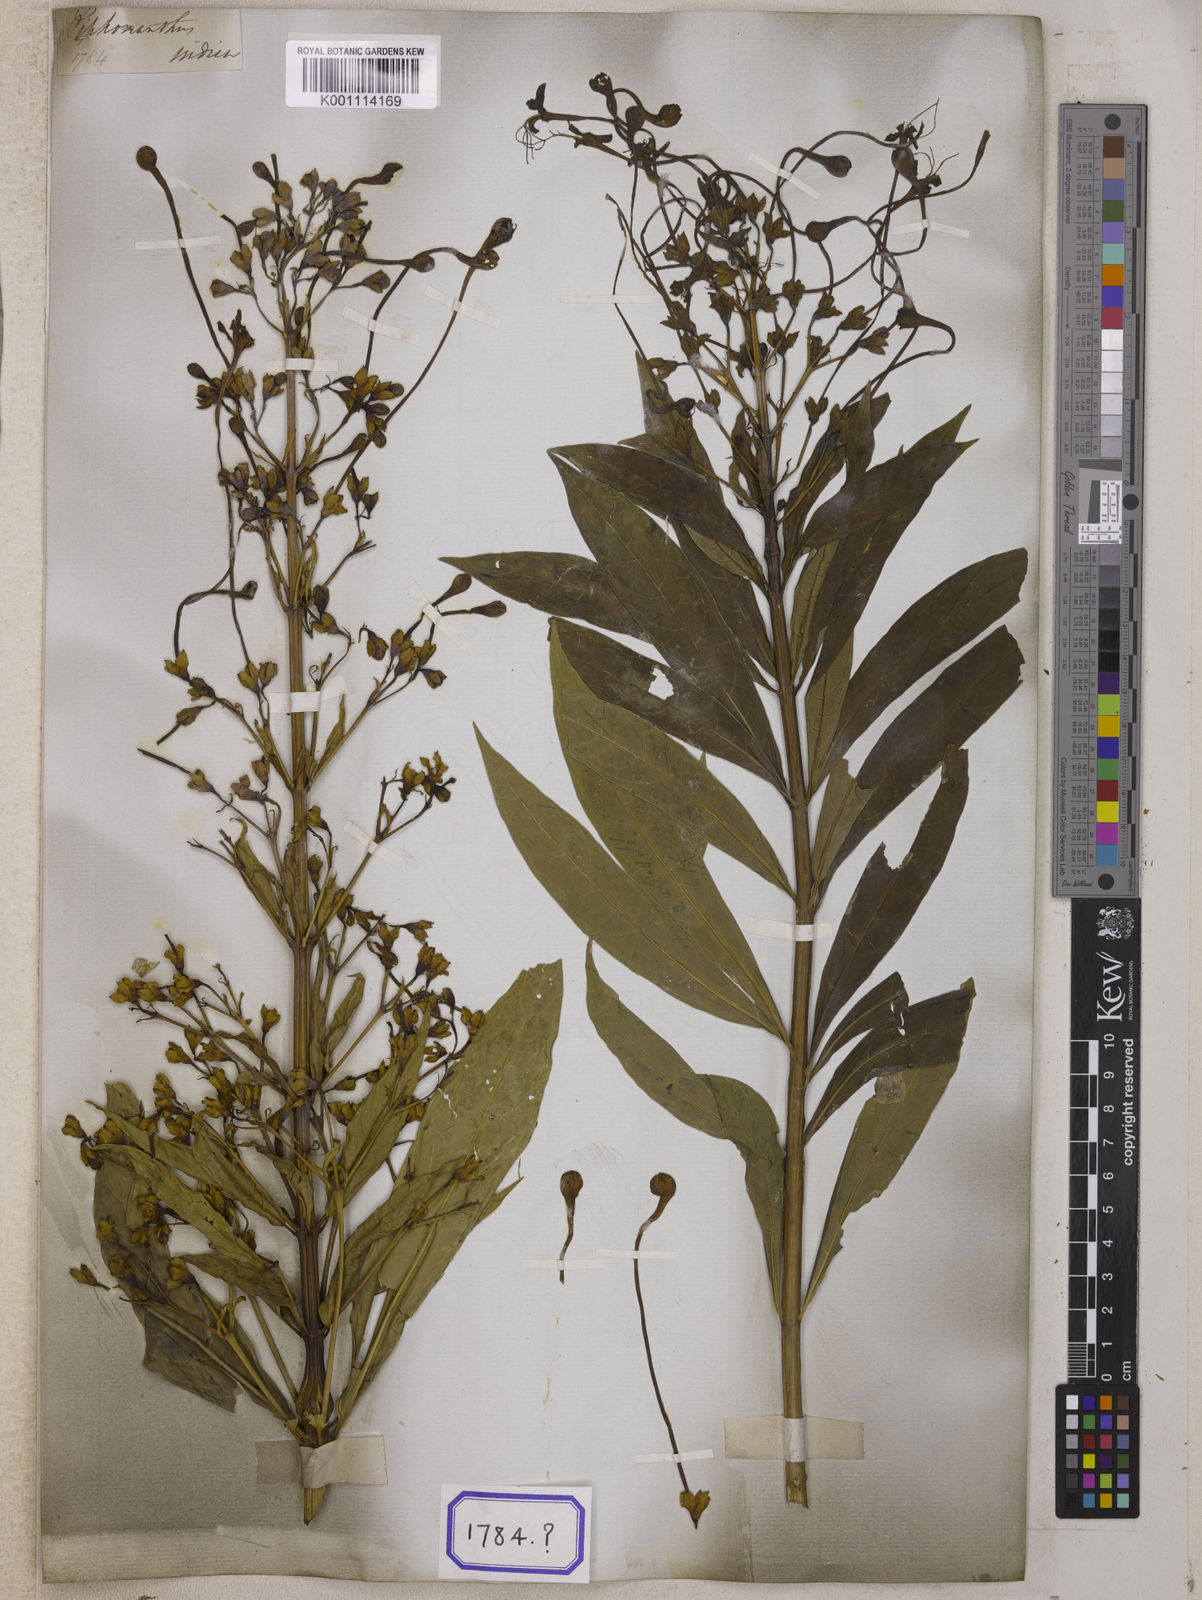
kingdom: Plantae
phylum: Tracheophyta
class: Magnoliopsida
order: Lamiales
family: Lamiaceae
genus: Clerodendrum
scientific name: Clerodendrum indicum
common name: Turk's turbin
